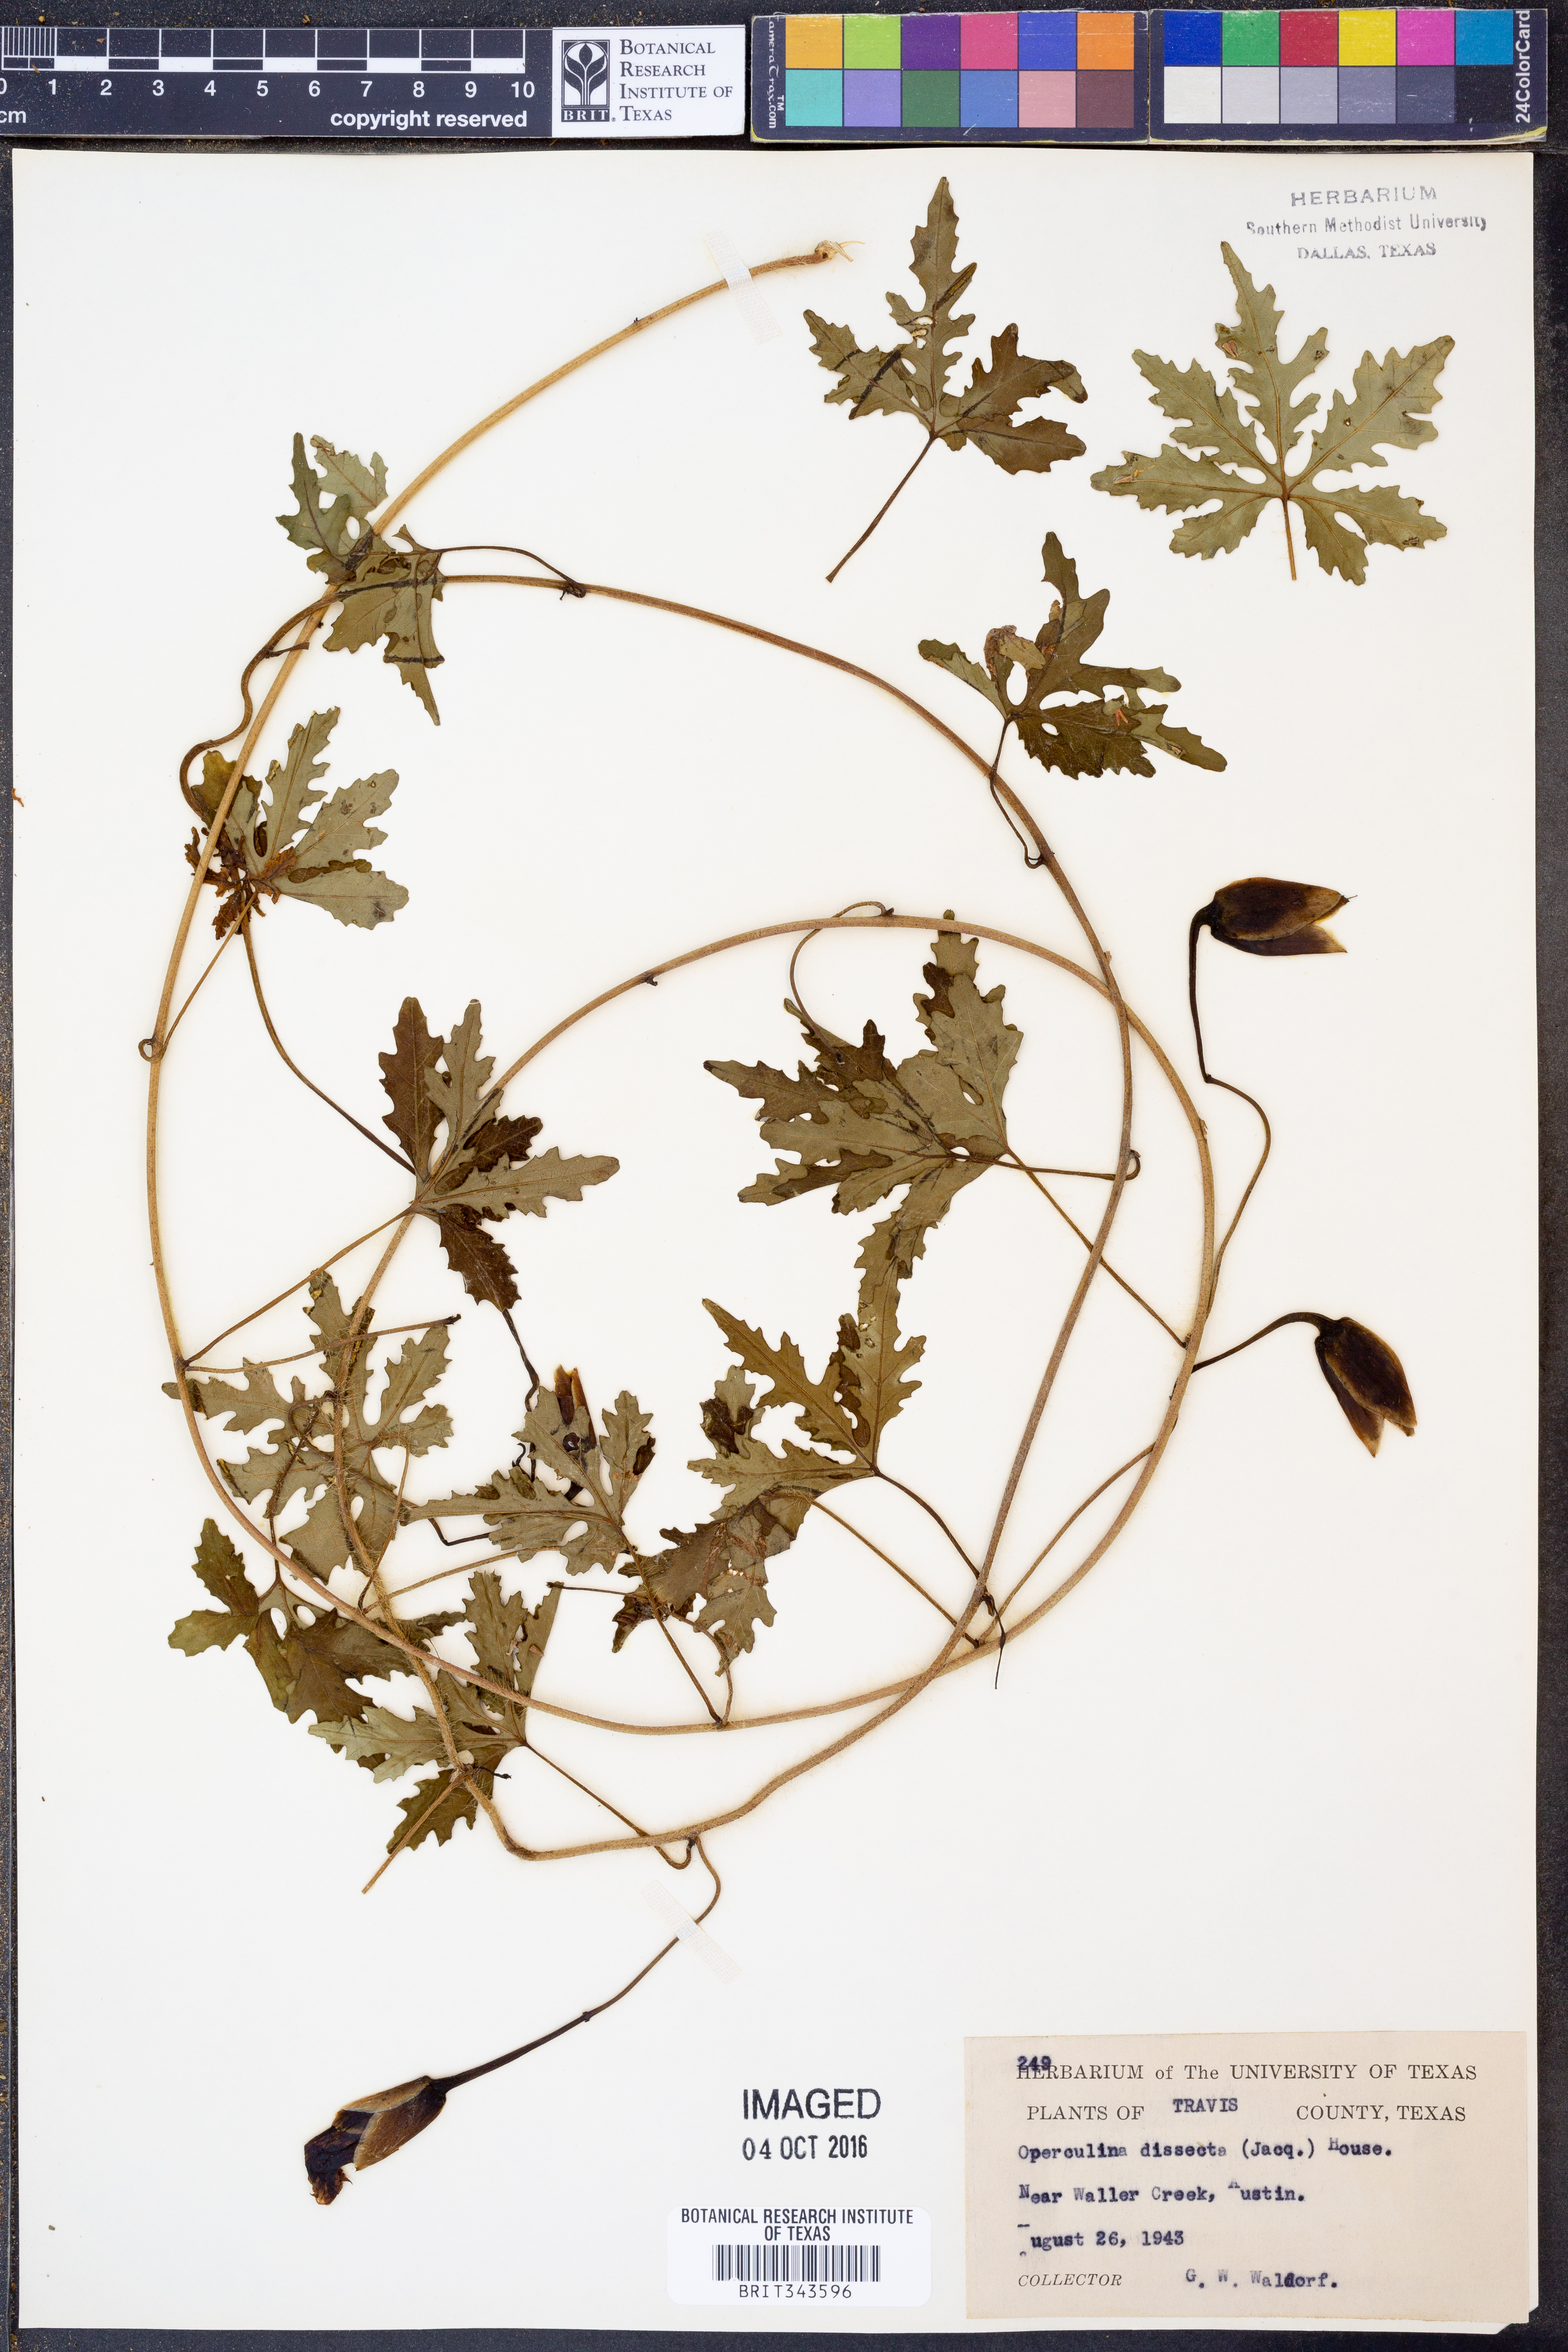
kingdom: Plantae
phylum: Tracheophyta
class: Magnoliopsida
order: Solanales
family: Convolvulaceae
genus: Distimake
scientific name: Distimake dissectus
